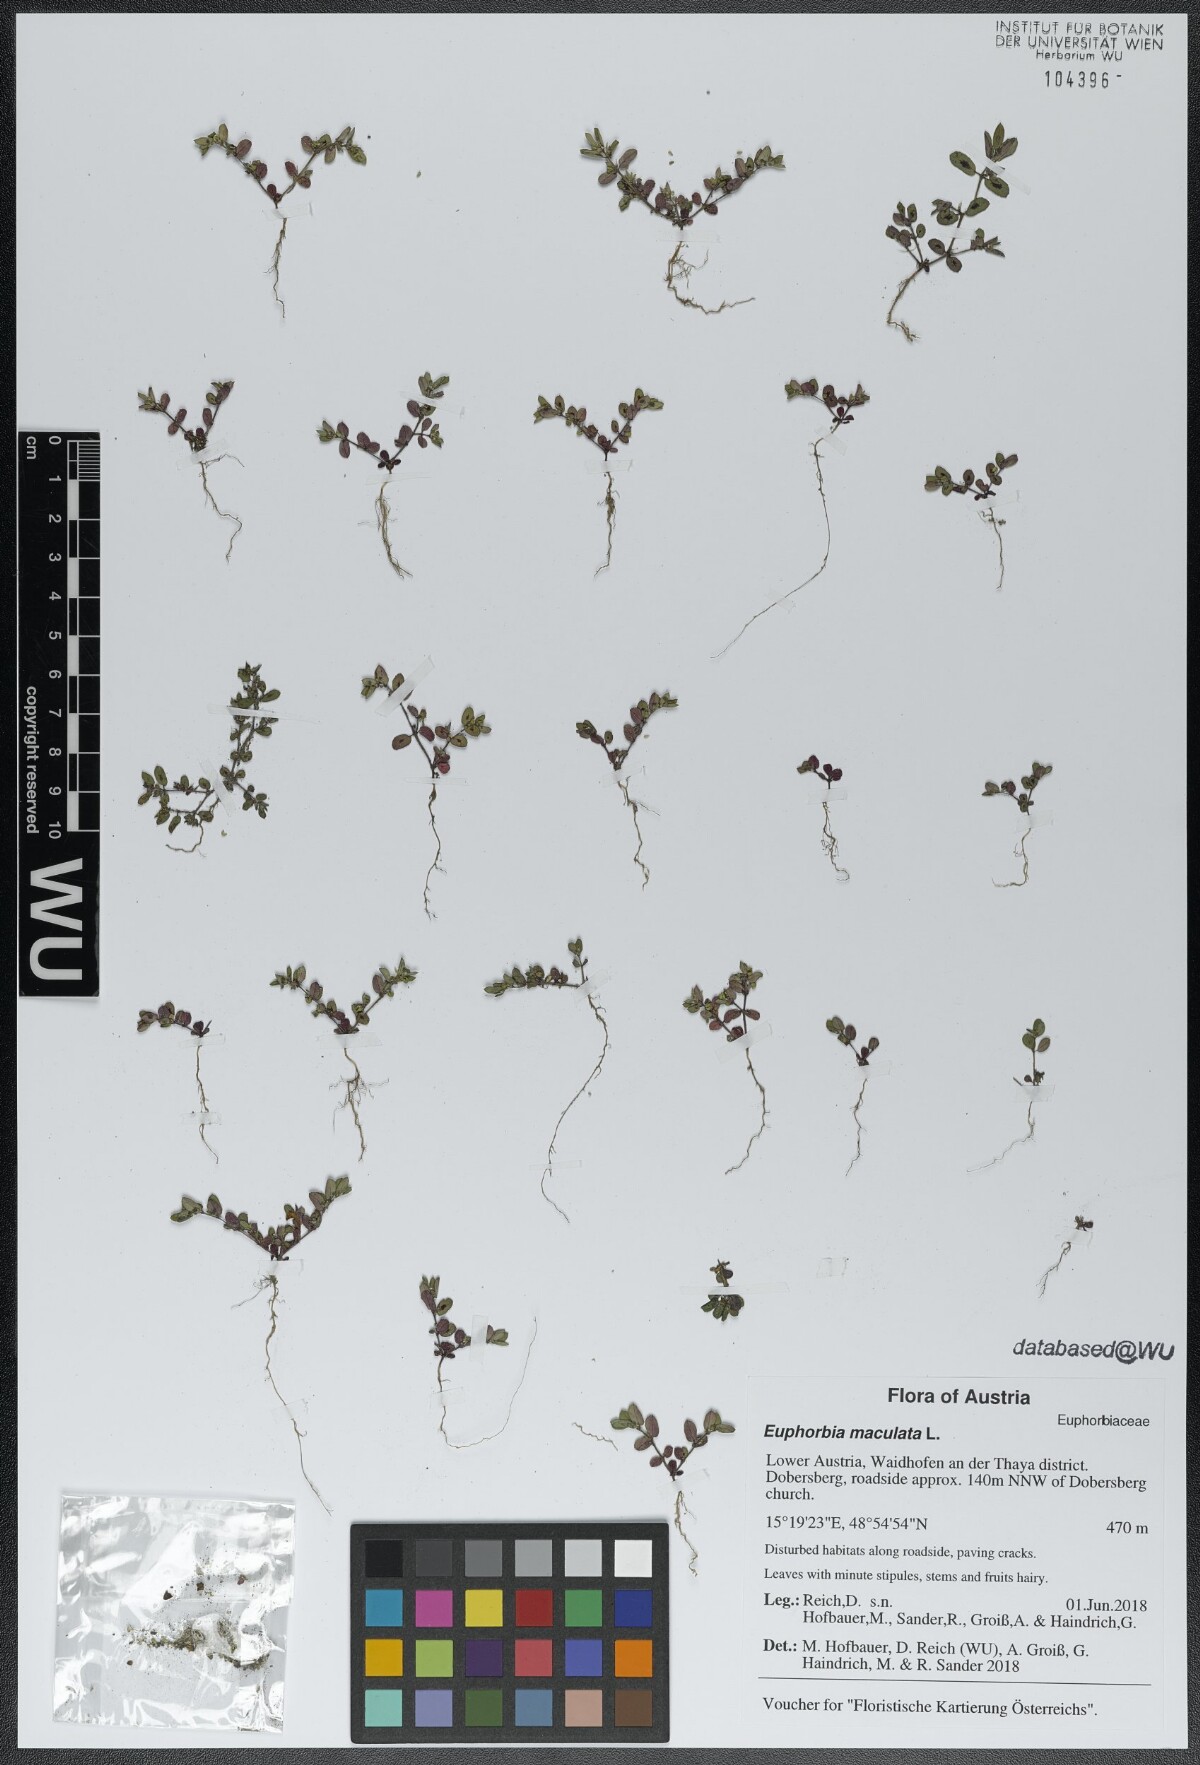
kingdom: Plantae
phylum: Tracheophyta
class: Magnoliopsida
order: Malpighiales
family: Euphorbiaceae
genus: Euphorbia
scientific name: Euphorbia maculata
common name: Spotted spurge
